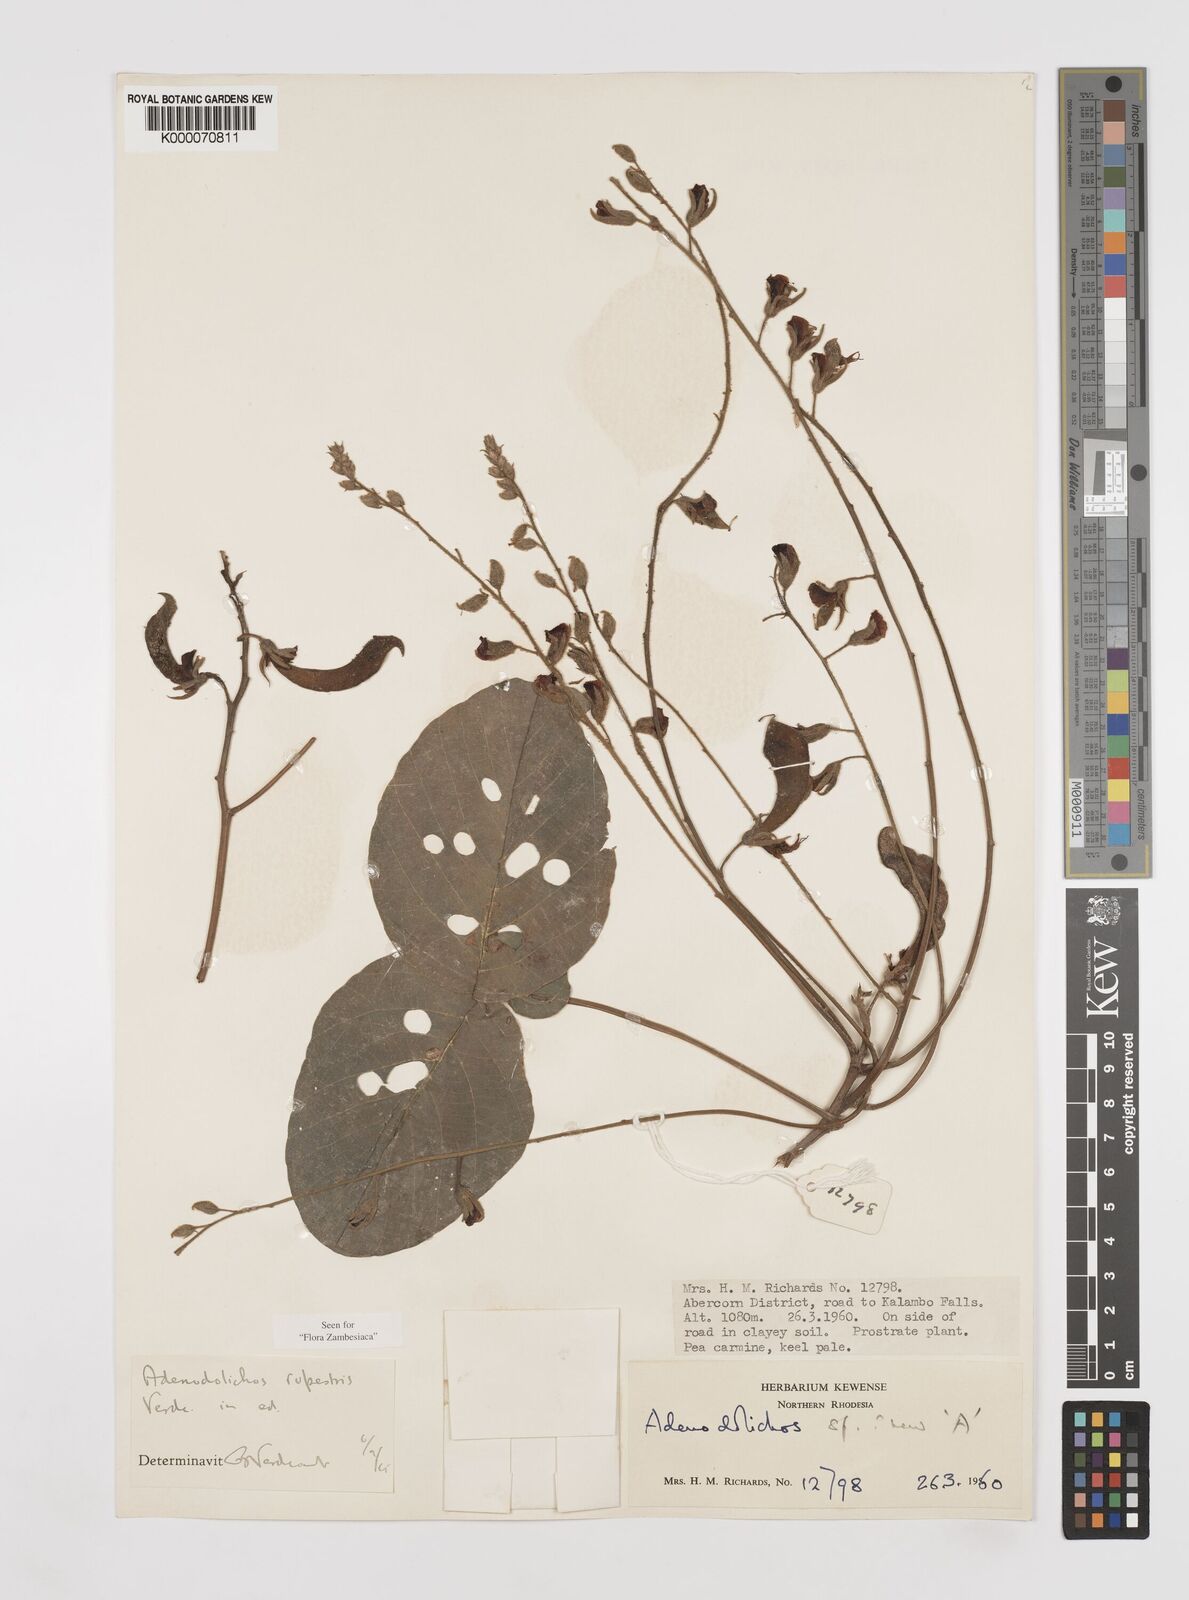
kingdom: Plantae
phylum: Tracheophyta
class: Magnoliopsida
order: Fabales
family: Fabaceae
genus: Adenodolichos
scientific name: Adenodolichos rupestris
